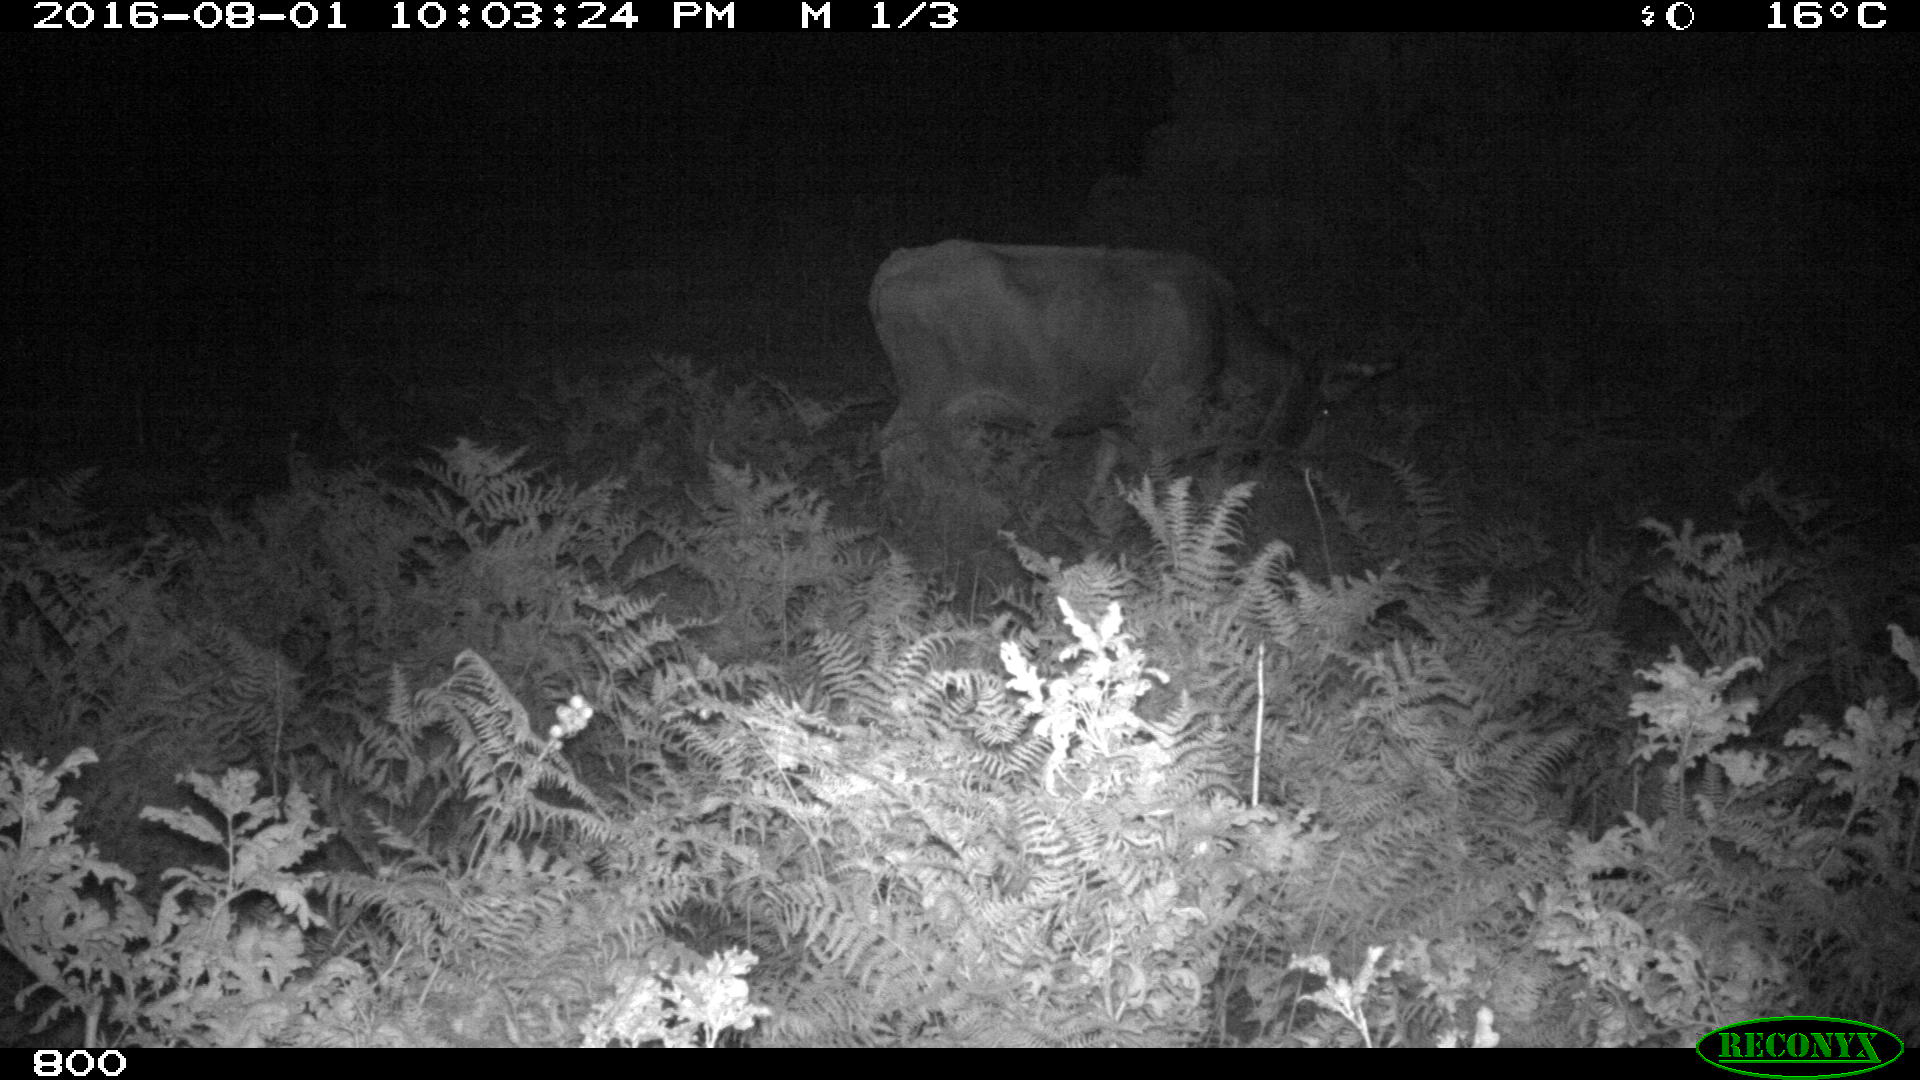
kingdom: Animalia
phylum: Chordata
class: Mammalia
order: Artiodactyla
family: Bovidae
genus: Bos
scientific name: Bos taurus
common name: Domesticated cattle
